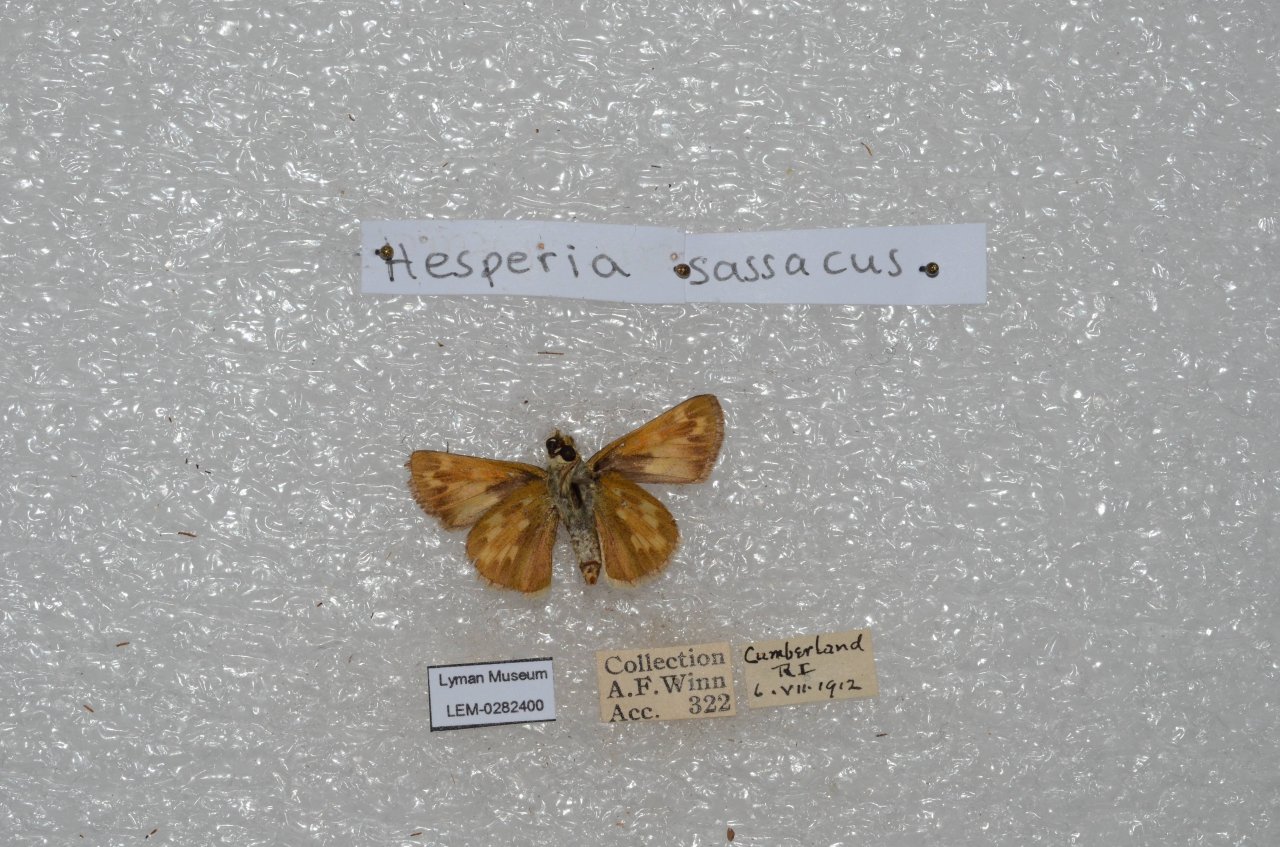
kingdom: Animalia
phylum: Arthropoda
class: Insecta
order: Lepidoptera
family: Hesperiidae
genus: Hesperia
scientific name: Hesperia sassacus
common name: Sassacus Skipper
